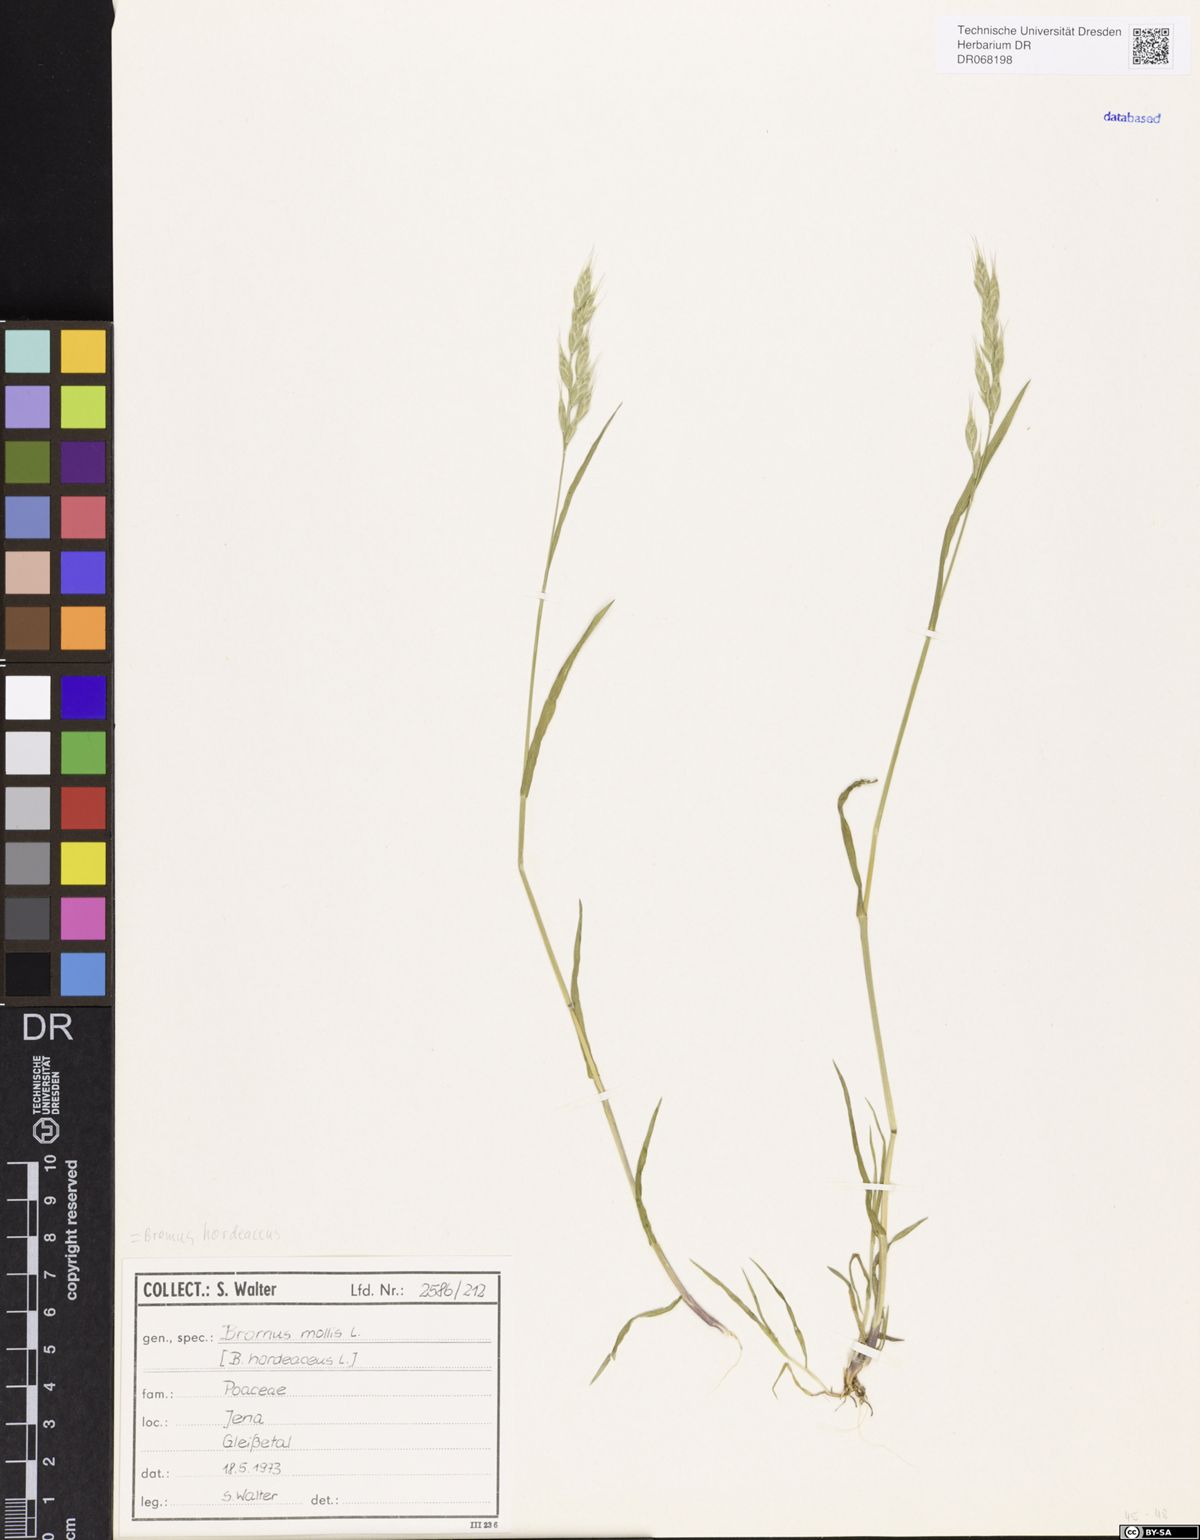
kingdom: Plantae
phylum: Tracheophyta
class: Liliopsida
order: Poales
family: Poaceae
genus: Bromus
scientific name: Bromus hordeaceus
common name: Soft brome
